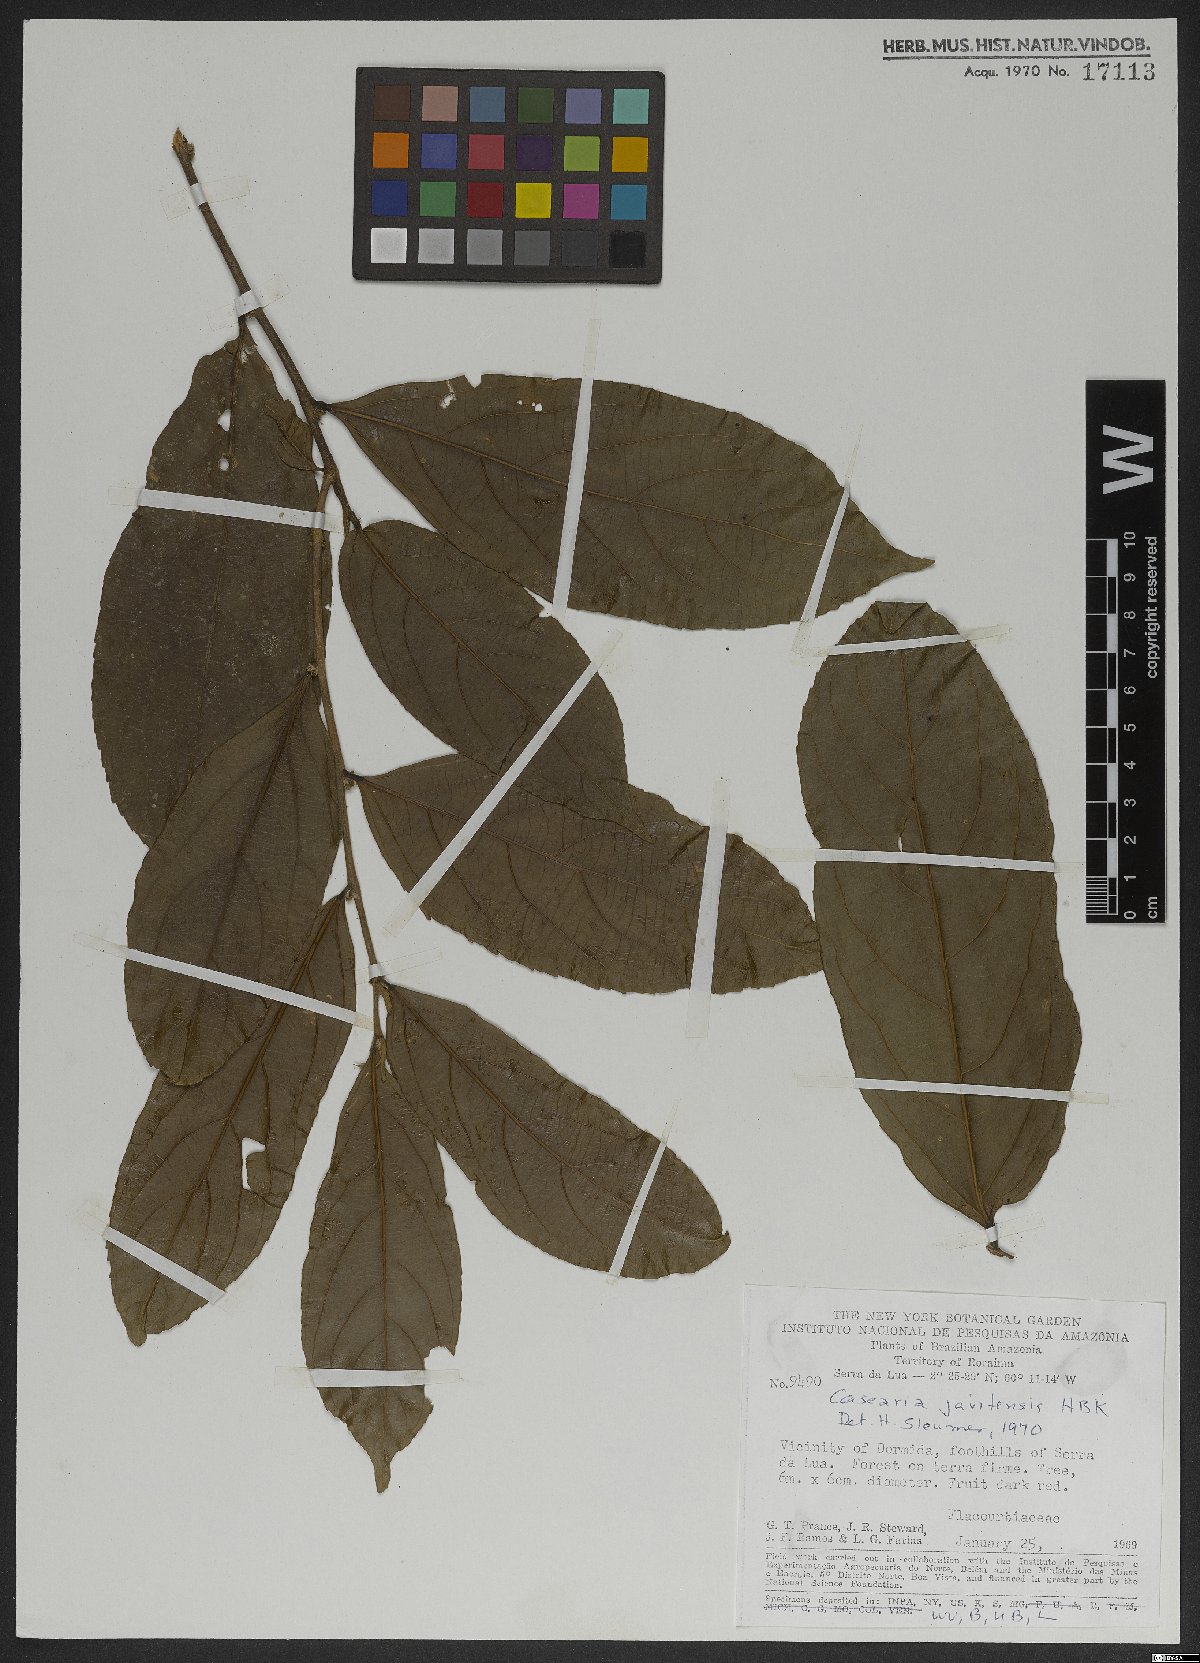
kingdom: Plantae
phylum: Tracheophyta
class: Magnoliopsida
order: Malpighiales
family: Salicaceae
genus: Piparea
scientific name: Piparea multiflora
